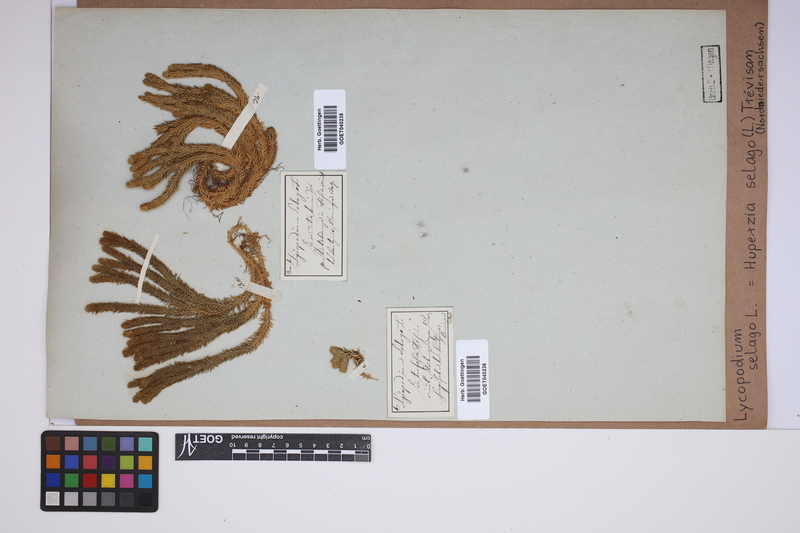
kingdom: Plantae
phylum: Tracheophyta
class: Lycopodiopsida
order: Lycopodiales
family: Lycopodiaceae
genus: Huperzia
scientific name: Huperzia selago
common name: Northern firmoss
